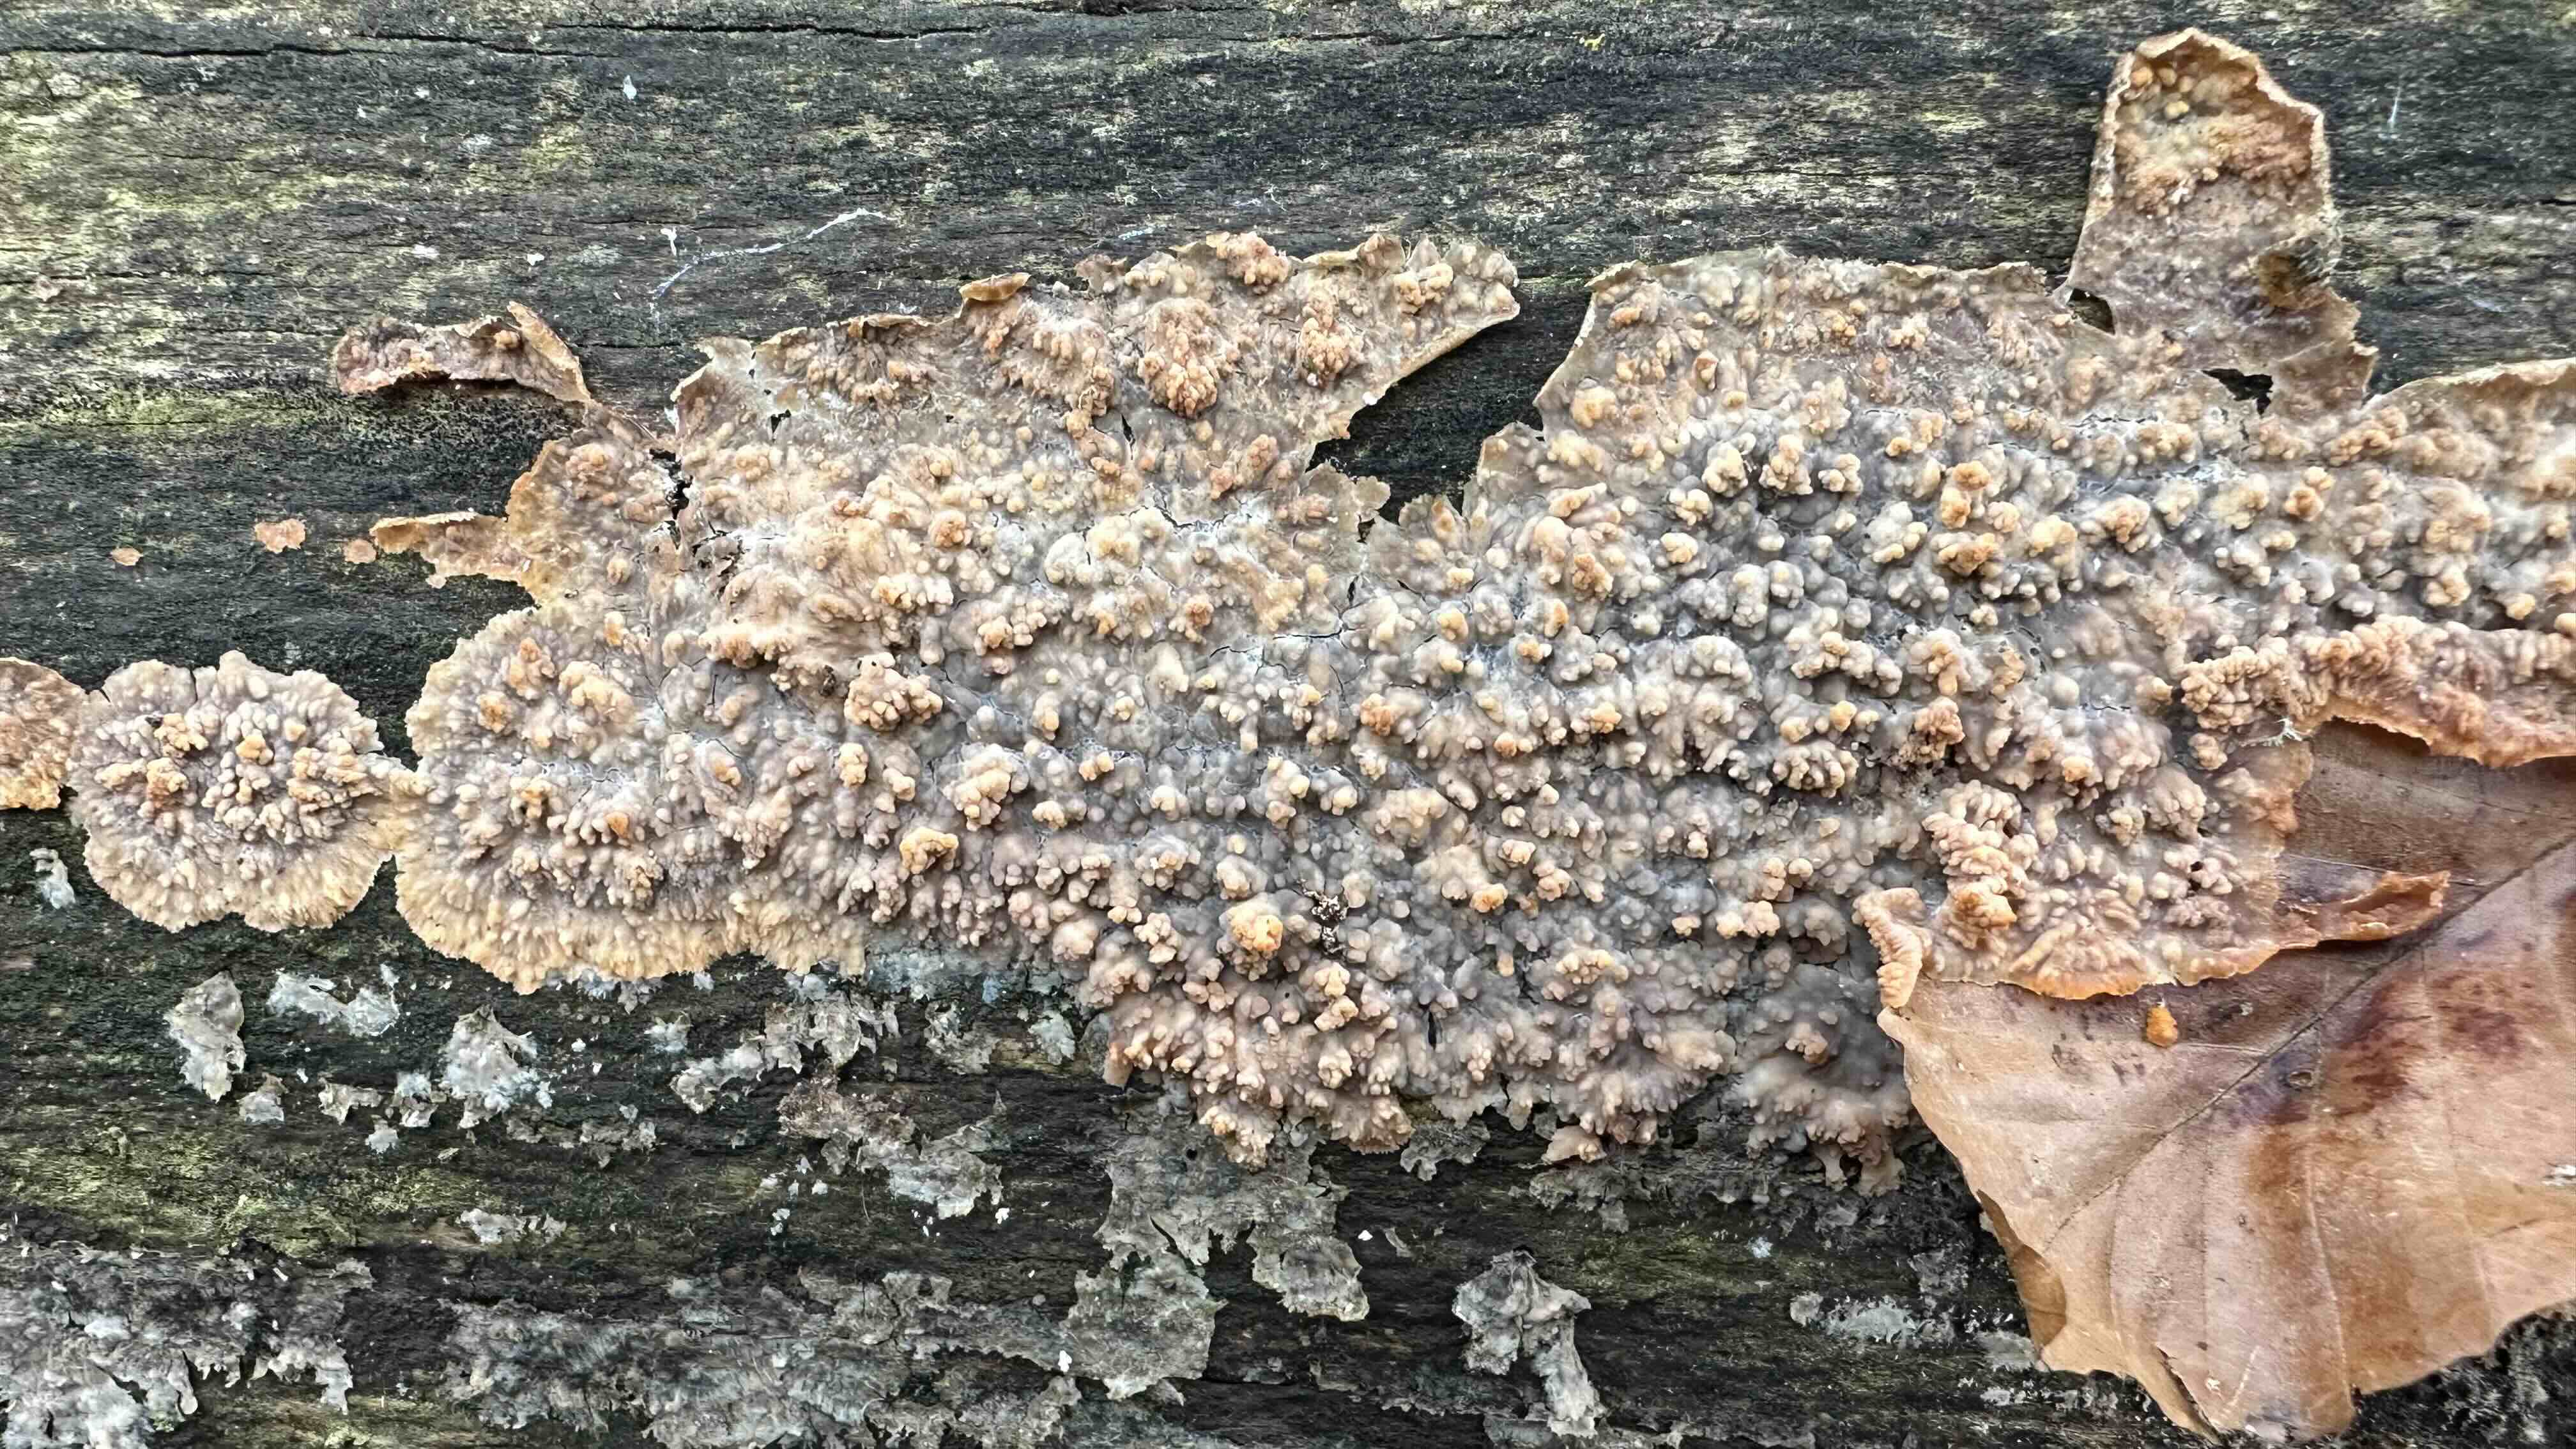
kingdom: Fungi
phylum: Basidiomycota
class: Agaricomycetes
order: Polyporales
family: Meruliaceae
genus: Phlebia
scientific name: Phlebia radiata
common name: stråle-åresvamp
